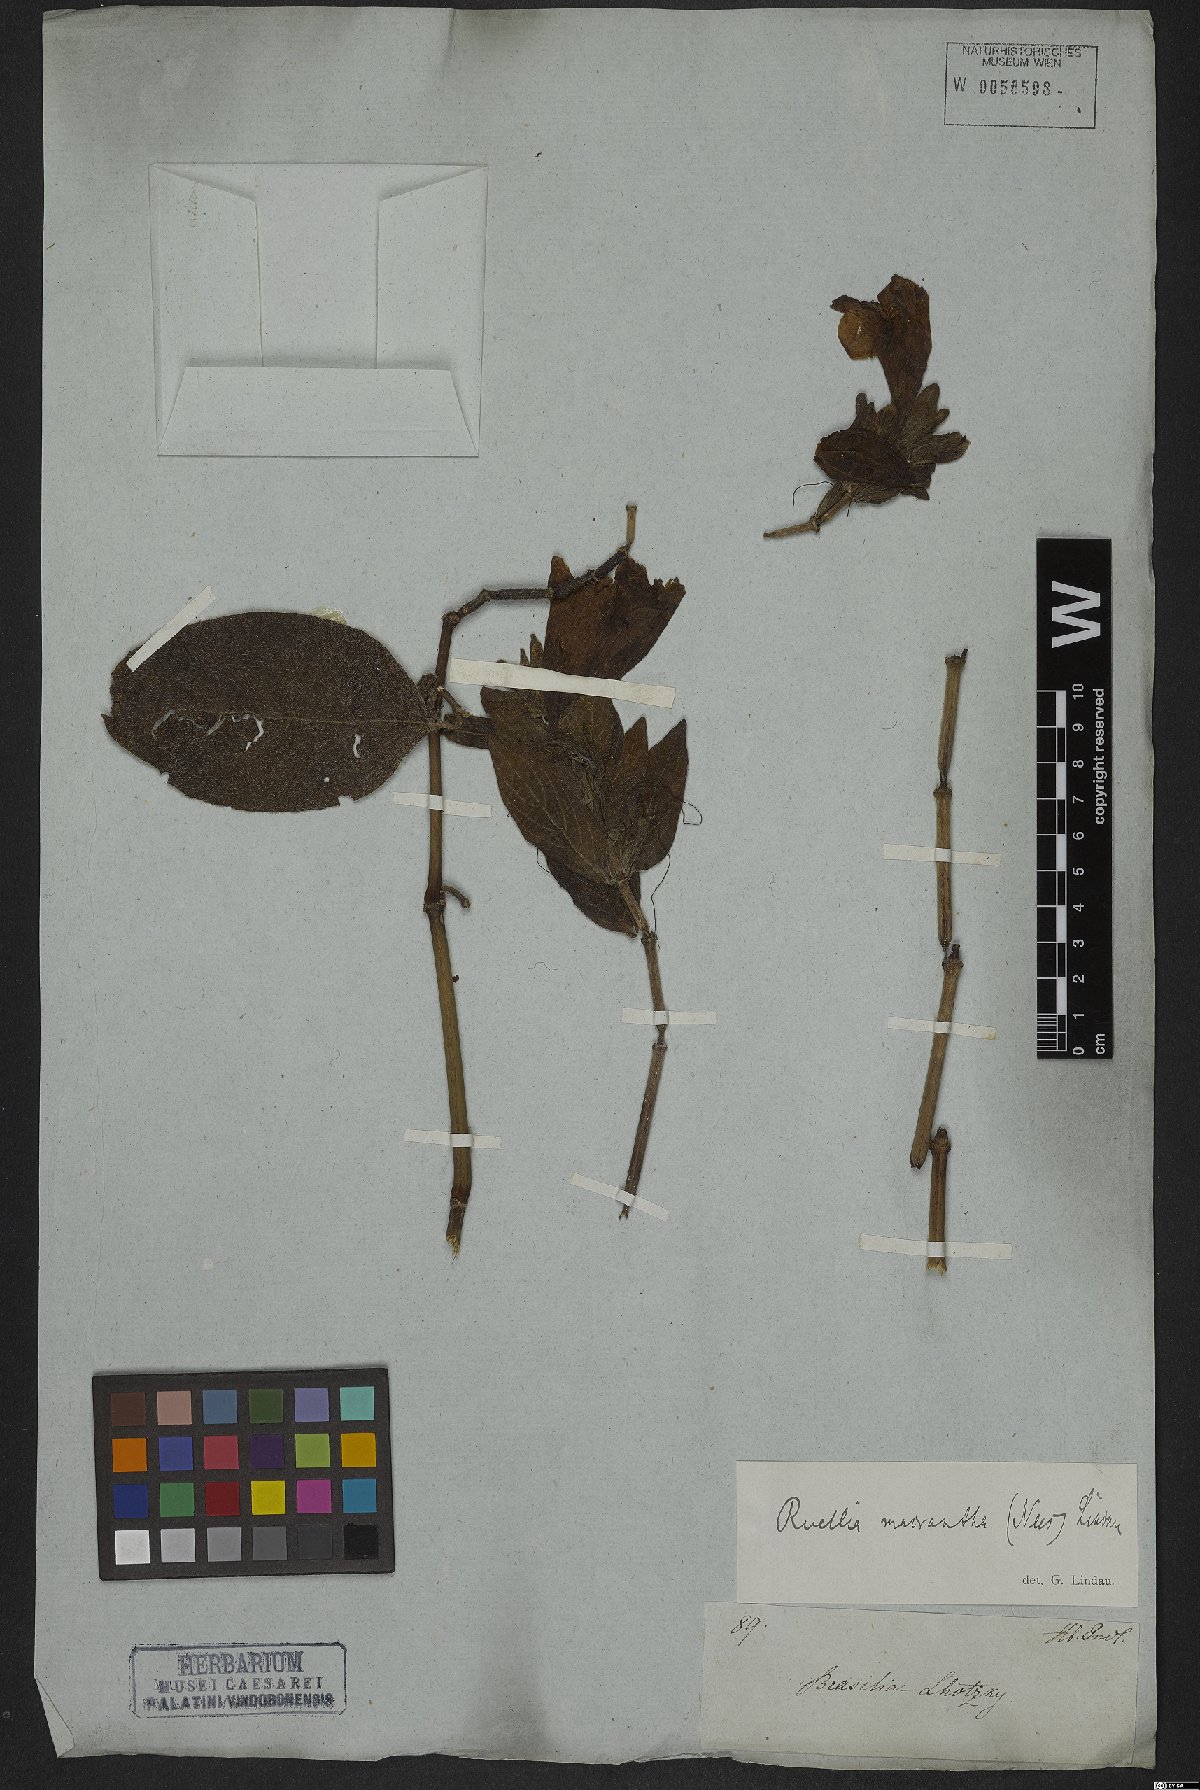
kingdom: Plantae
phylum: Tracheophyta
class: Magnoliopsida
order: Lamiales
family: Acanthaceae
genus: Ruellia
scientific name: Ruellia macrantha
